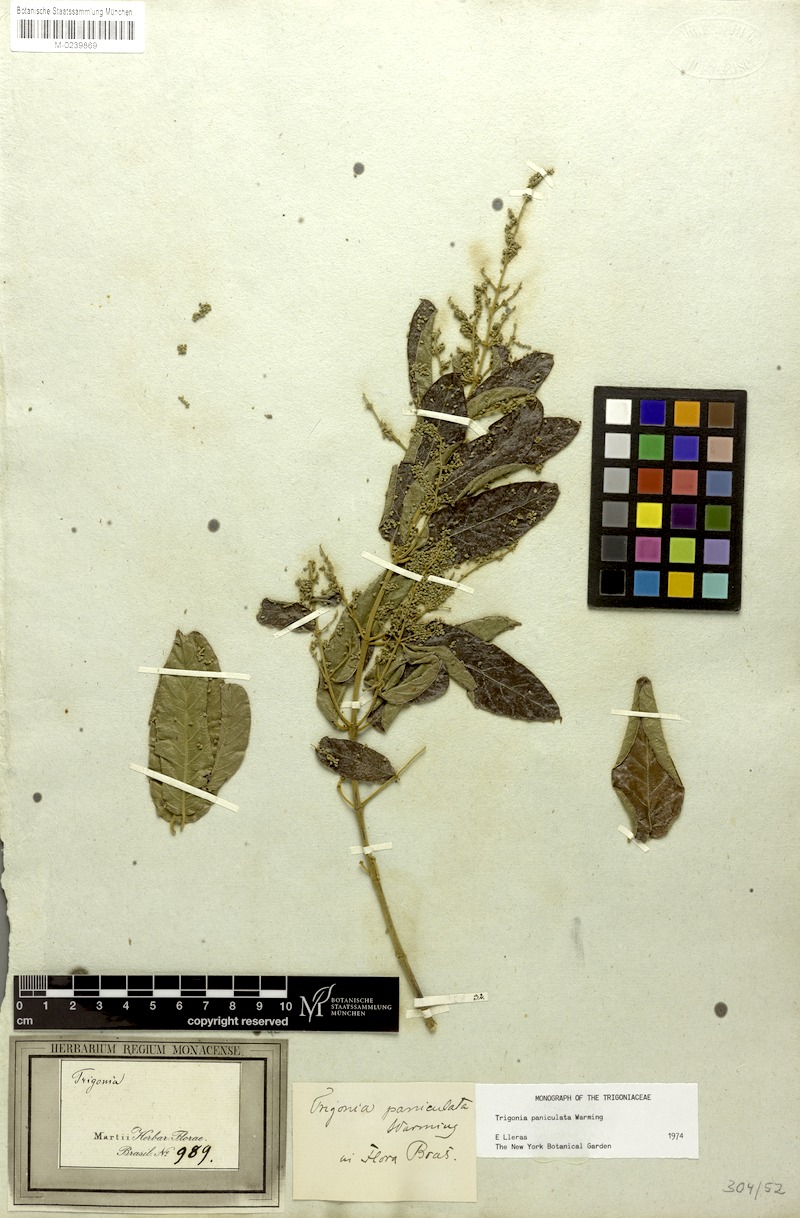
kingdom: Plantae
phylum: Tracheophyta
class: Magnoliopsida
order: Malpighiales
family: Trigoniaceae
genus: Trigonia
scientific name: Trigonia paniculata
